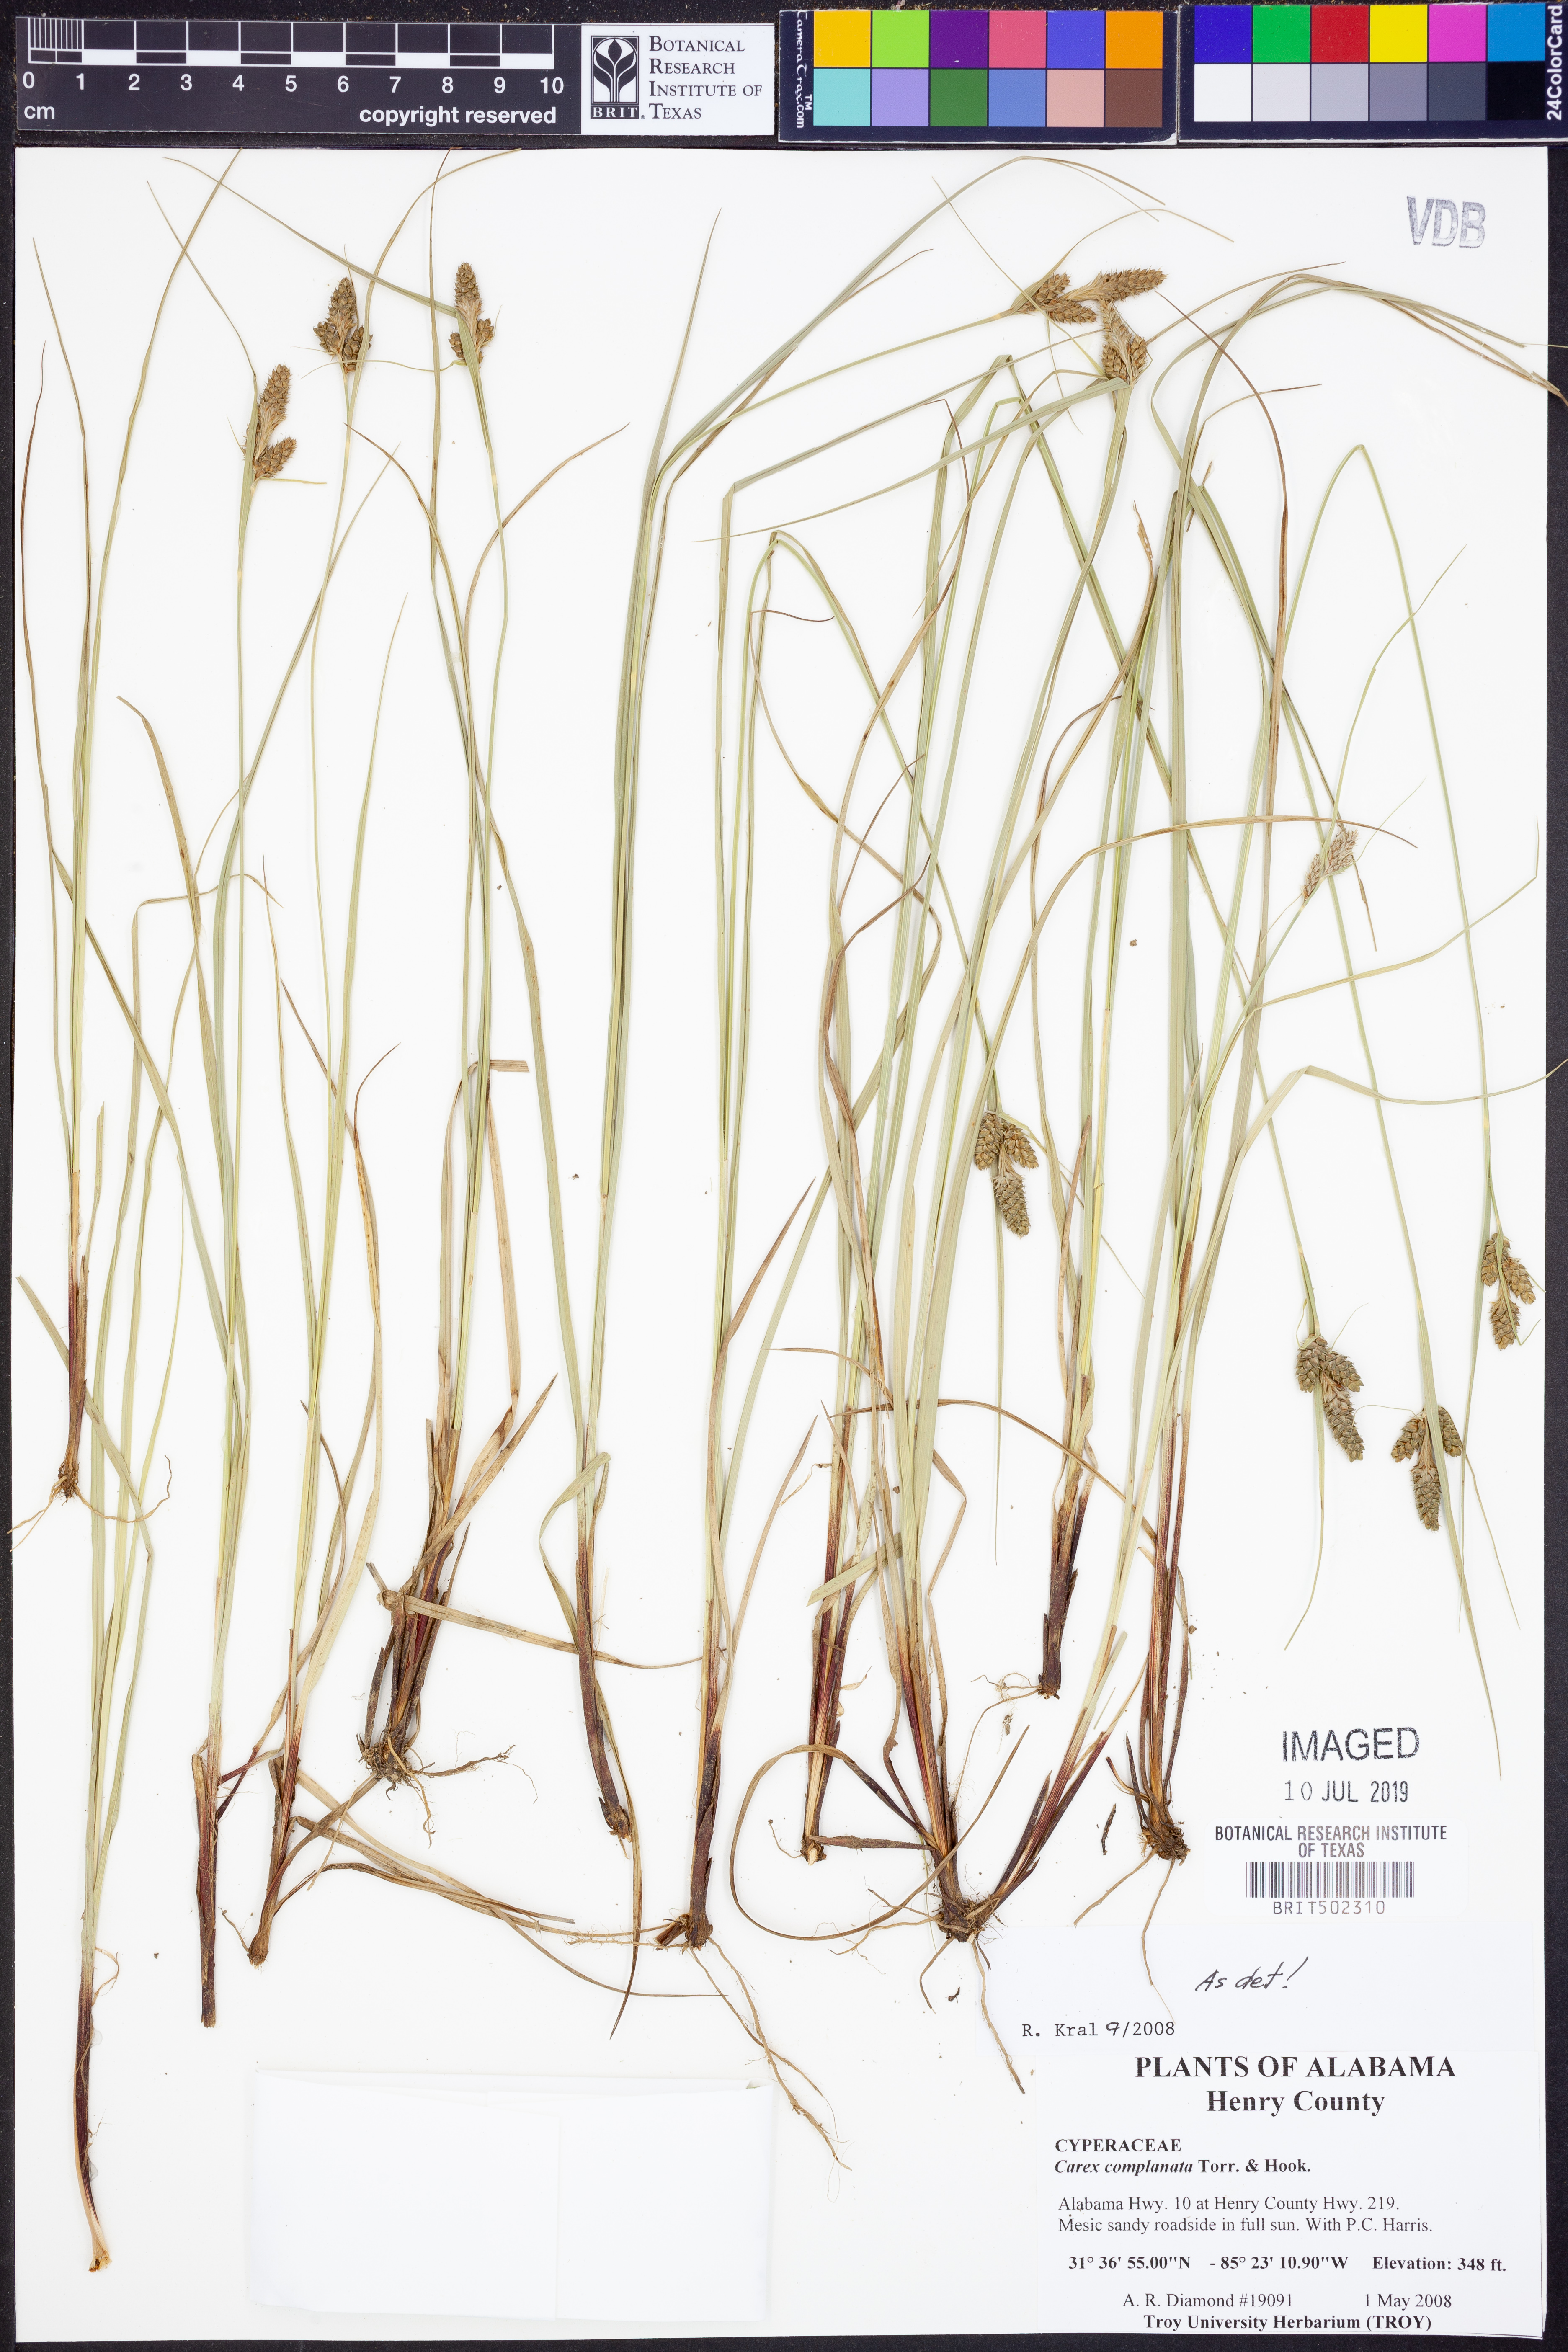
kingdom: Plantae
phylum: Tracheophyta
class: Liliopsida
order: Poales
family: Cyperaceae
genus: Carex
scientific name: Carex complanata
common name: Hirsute sedge
